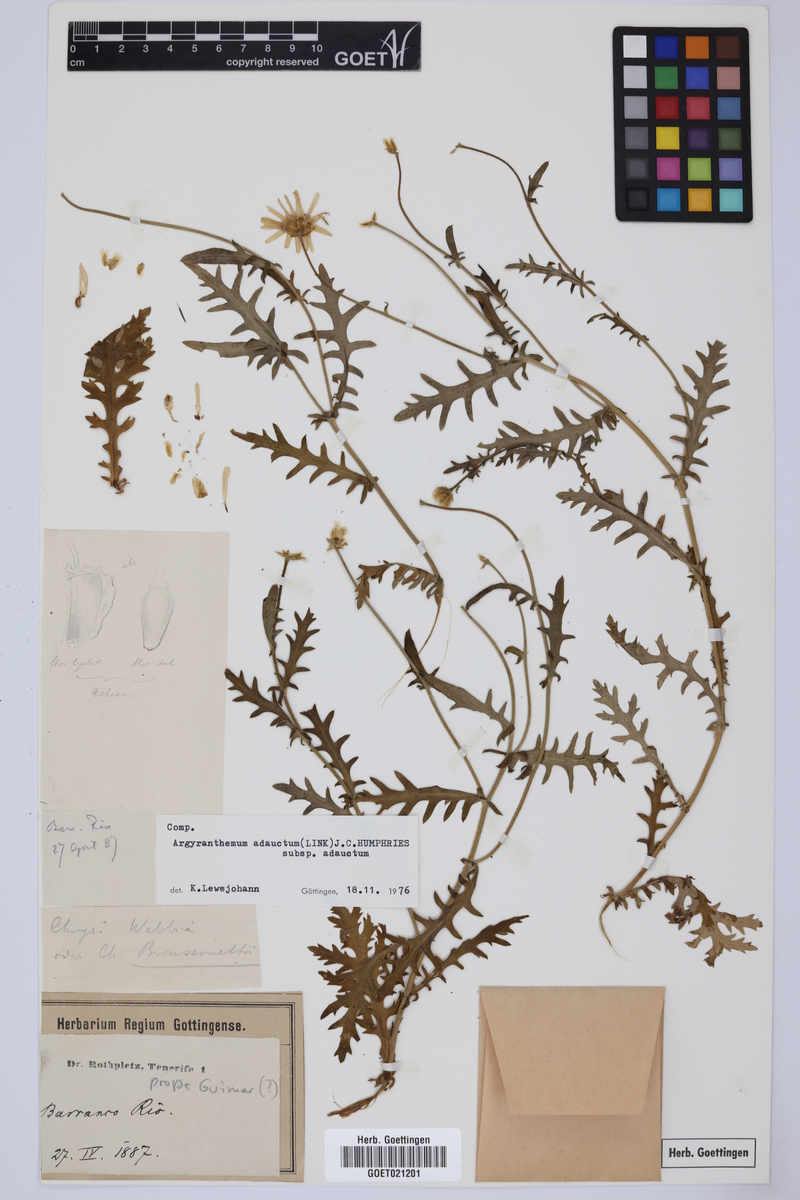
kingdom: Plantae
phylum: Tracheophyta
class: Magnoliopsida
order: Asterales
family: Asteraceae
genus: Argyranthemum
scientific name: Argyranthemum adauctum
